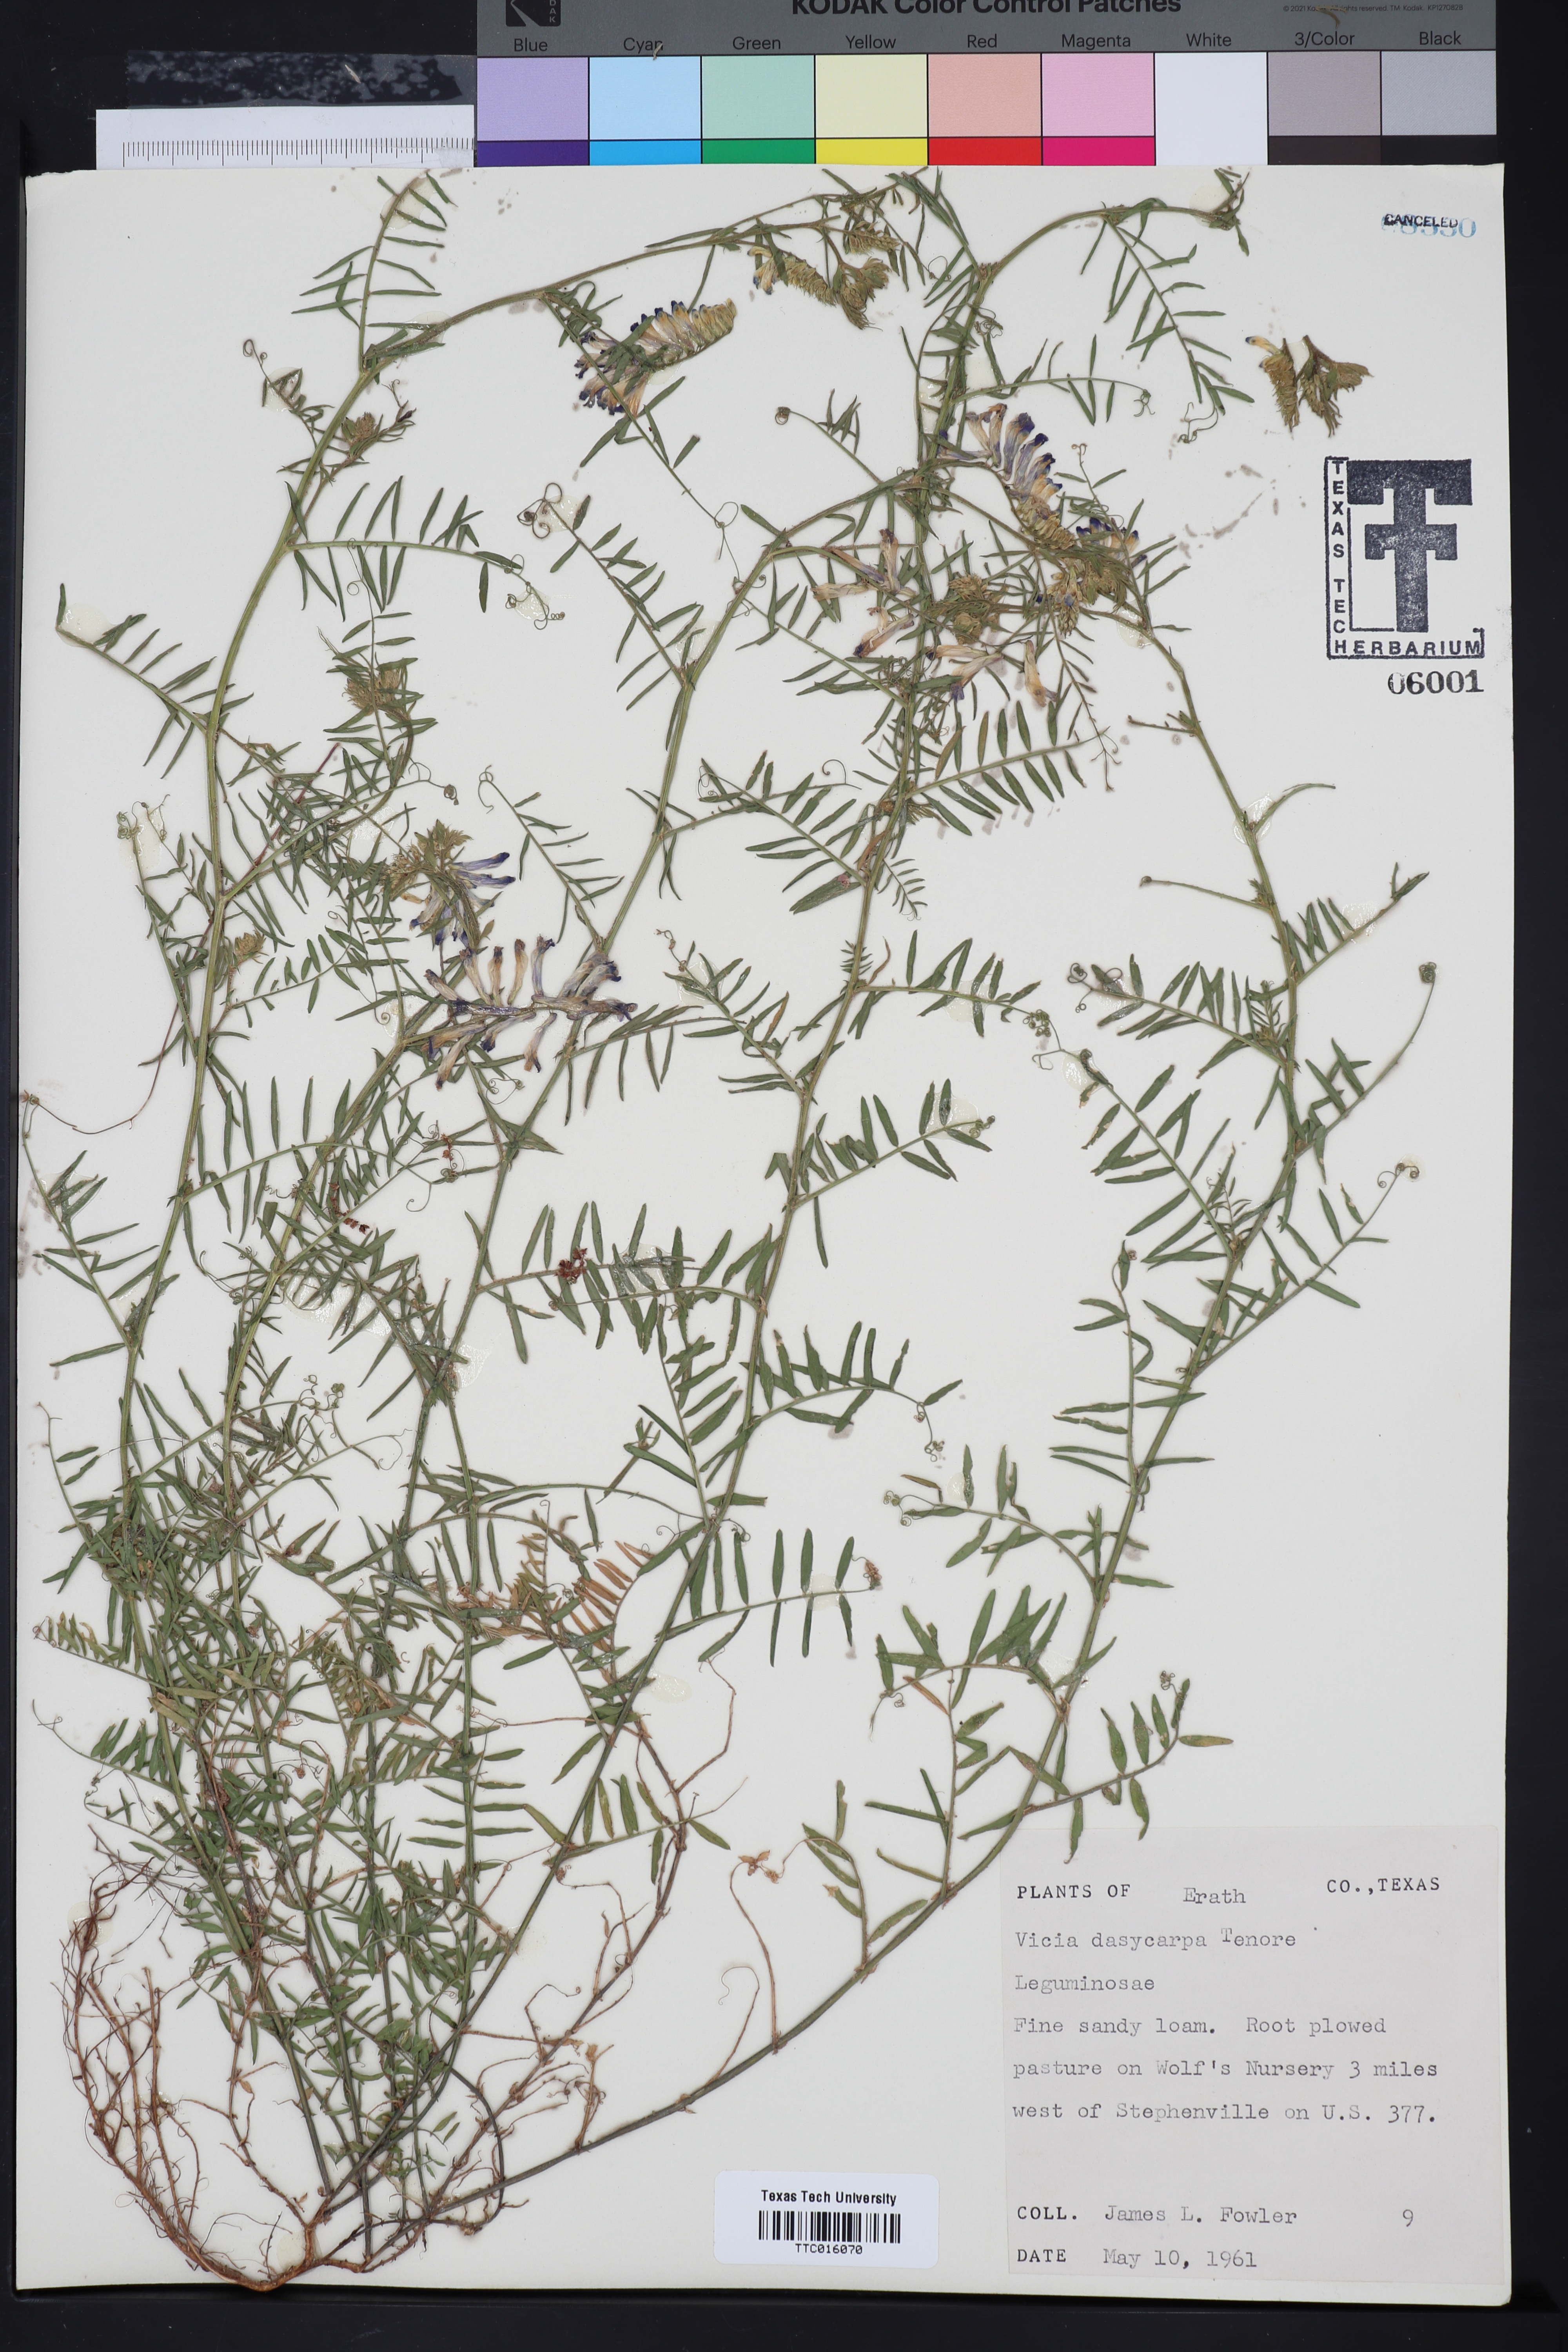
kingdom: Plantae
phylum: Tracheophyta
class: Magnoliopsida
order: Fabales
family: Fabaceae
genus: Vicia
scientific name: Vicia villosa
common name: Fodder vetch
